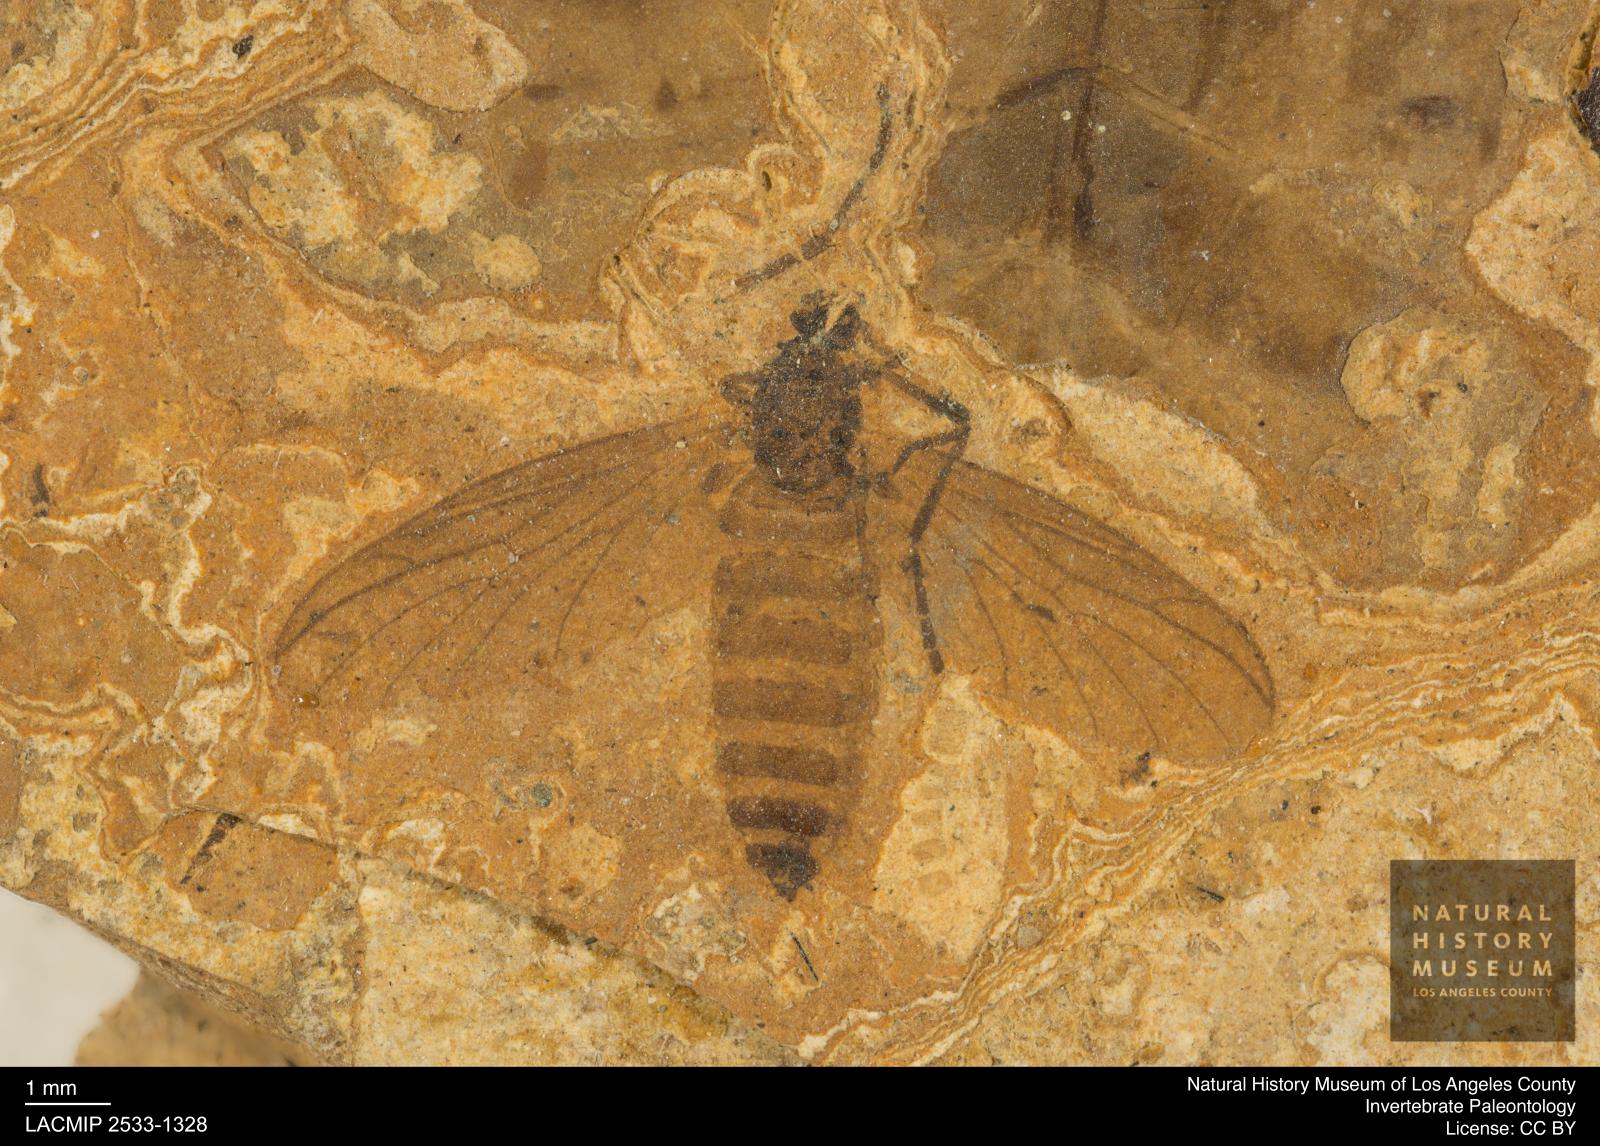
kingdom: Animalia
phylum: Arthropoda
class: Insecta
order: Diptera
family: Bibionidae
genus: Plecia
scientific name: Plecia hypogaea
